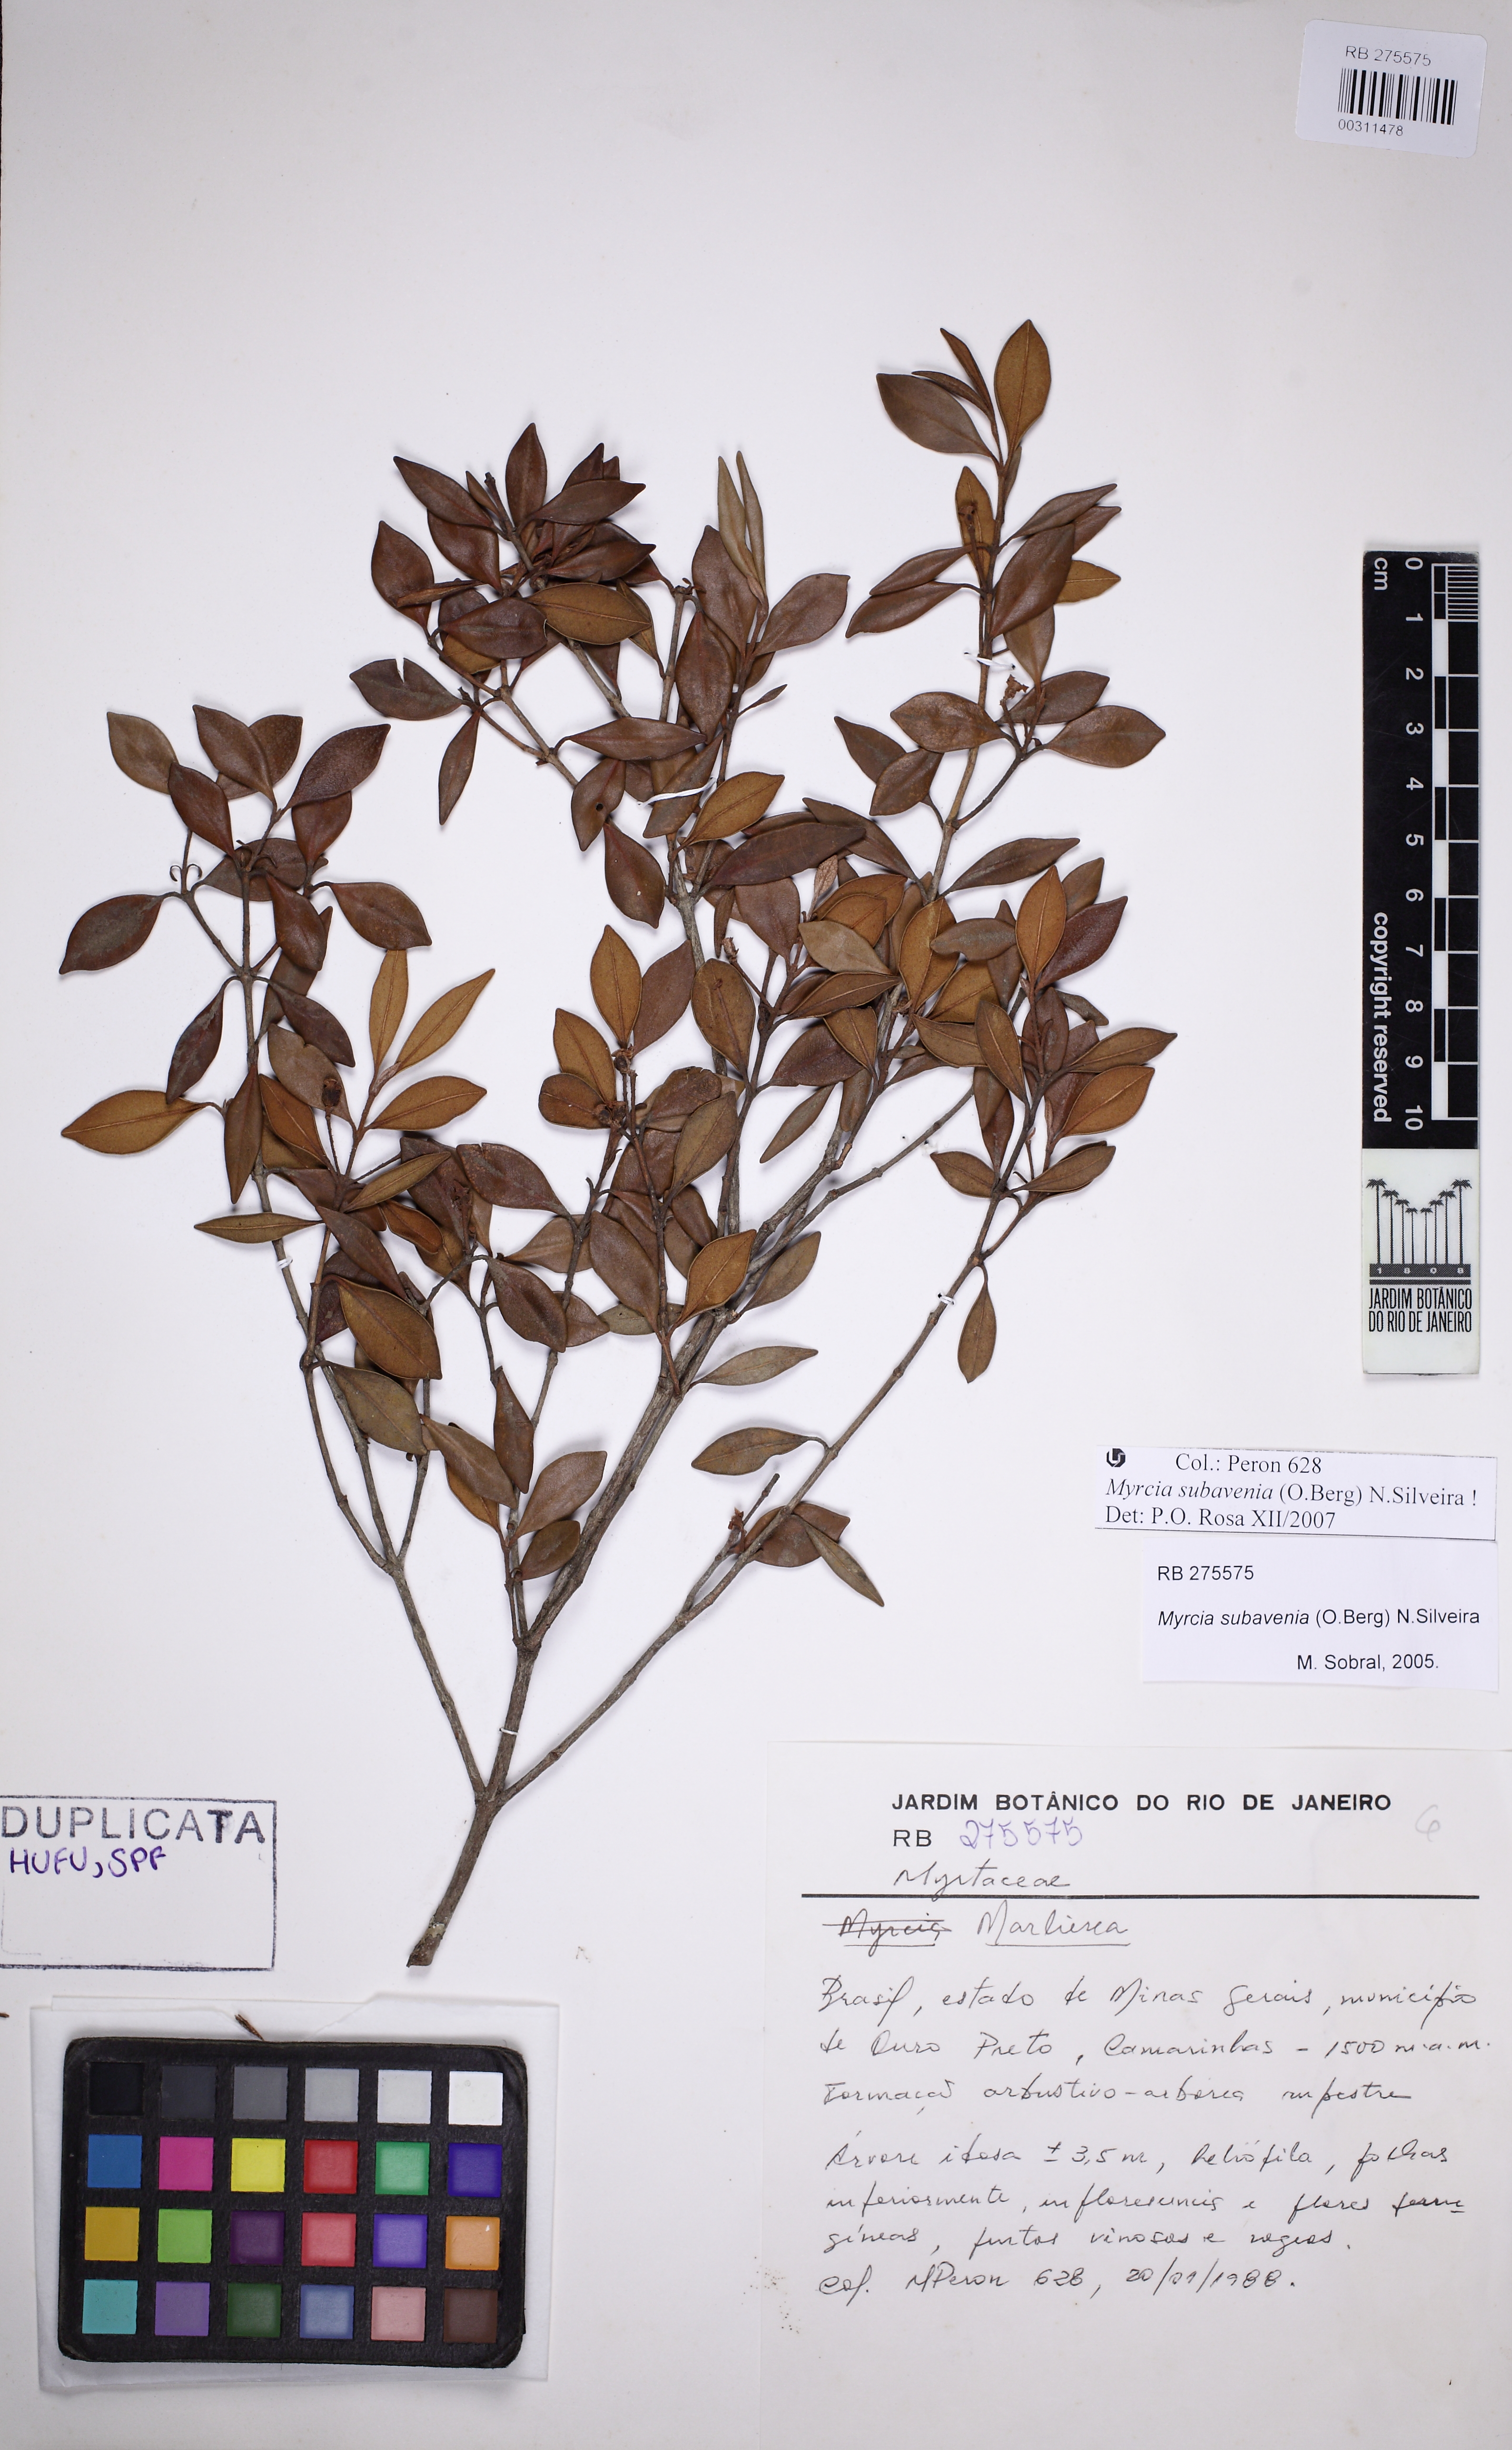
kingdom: Plantae
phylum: Tracheophyta
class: Magnoliopsida
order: Myrtales
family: Myrtaceae
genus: Myrcia
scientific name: Myrcia subavenia
